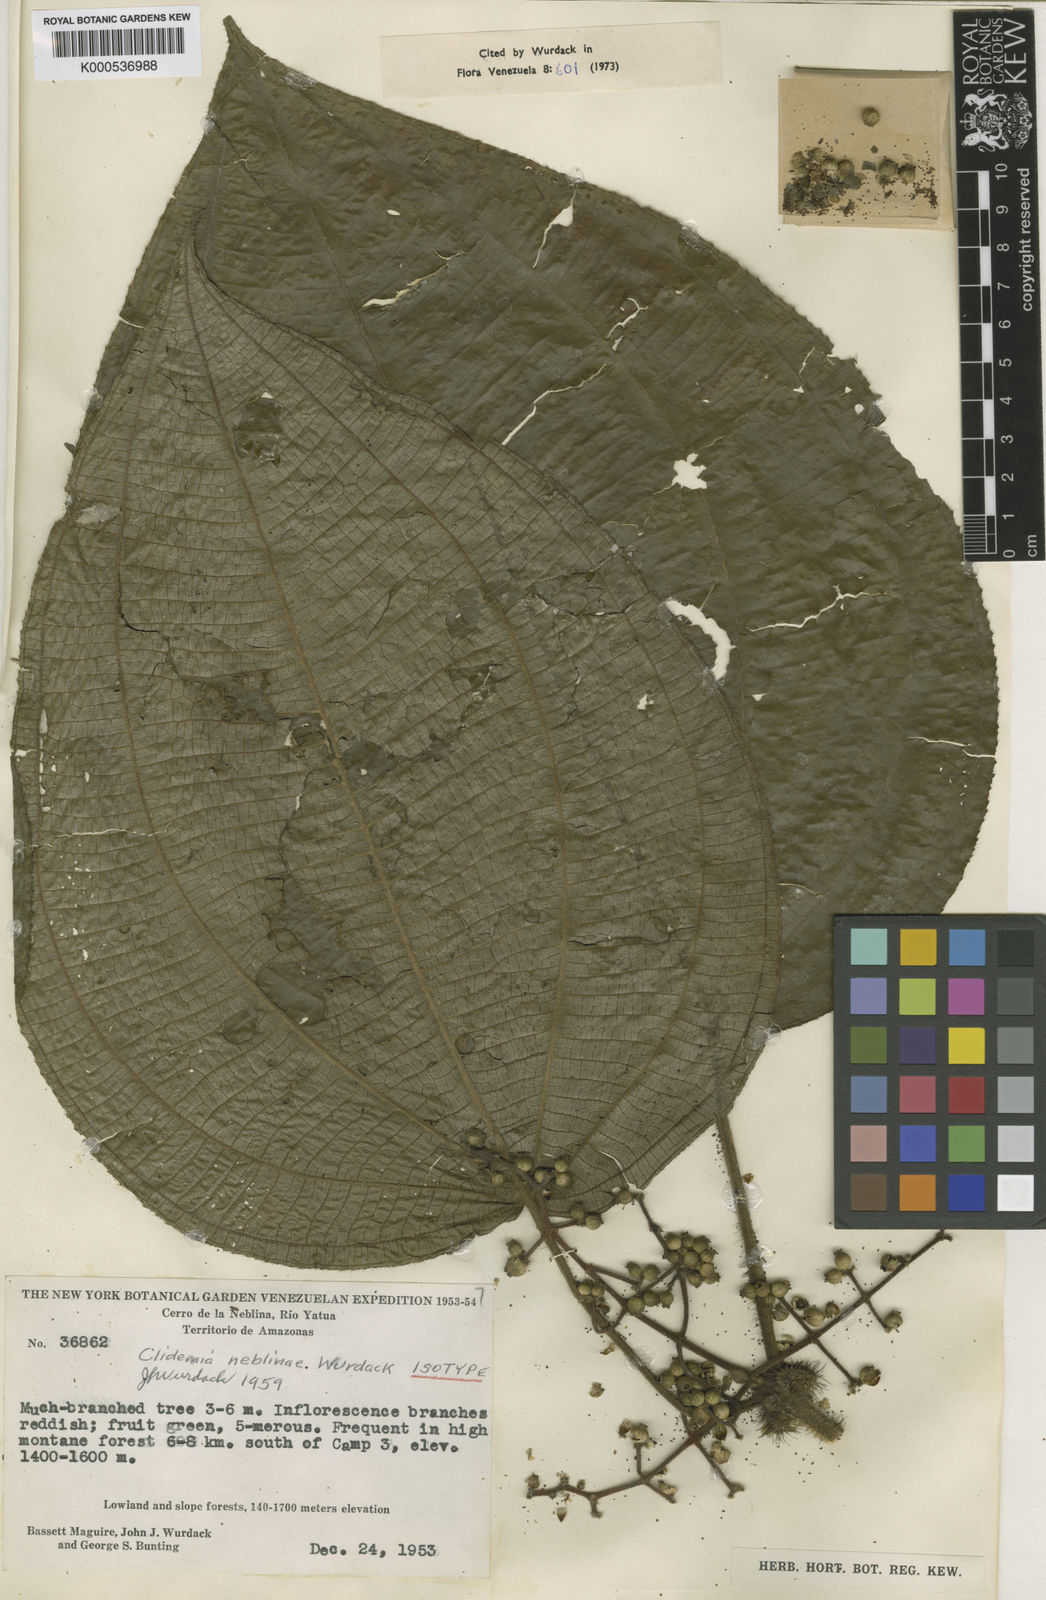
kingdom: Plantae
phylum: Tracheophyta
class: Magnoliopsida
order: Myrtales
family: Melastomataceae
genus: Miconia
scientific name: Miconia neblinae
